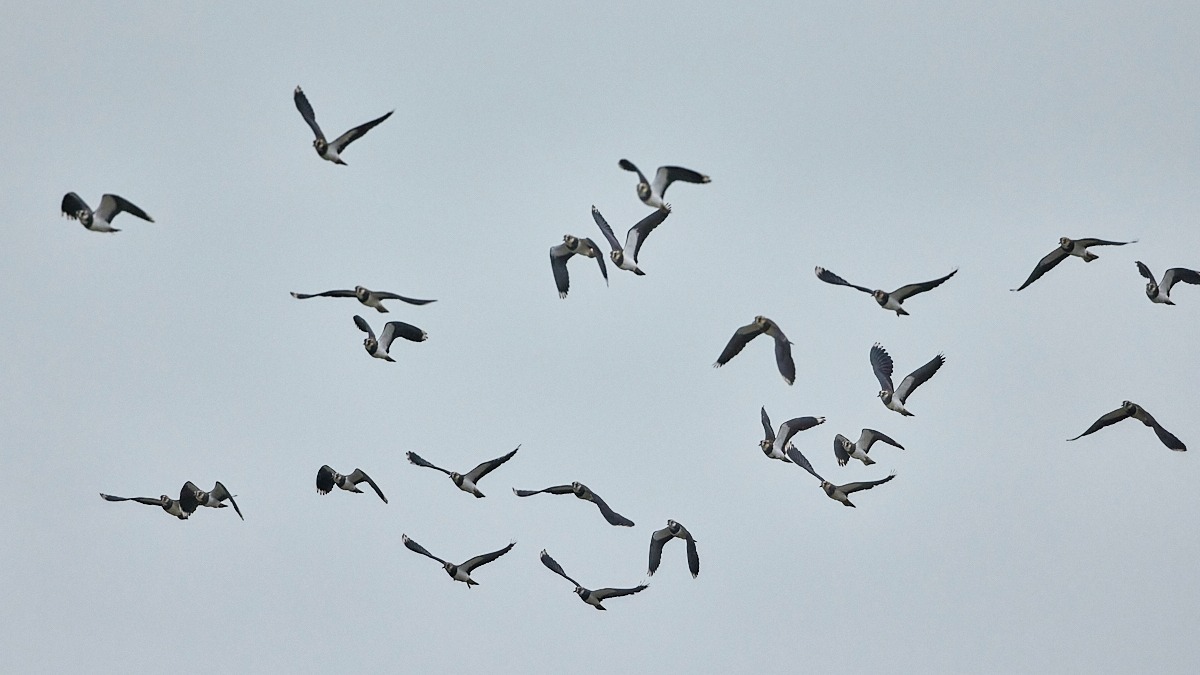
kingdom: Animalia
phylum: Chordata
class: Aves
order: Charadriiformes
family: Charadriidae
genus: Vanellus
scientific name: Vanellus vanellus
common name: Vibe
